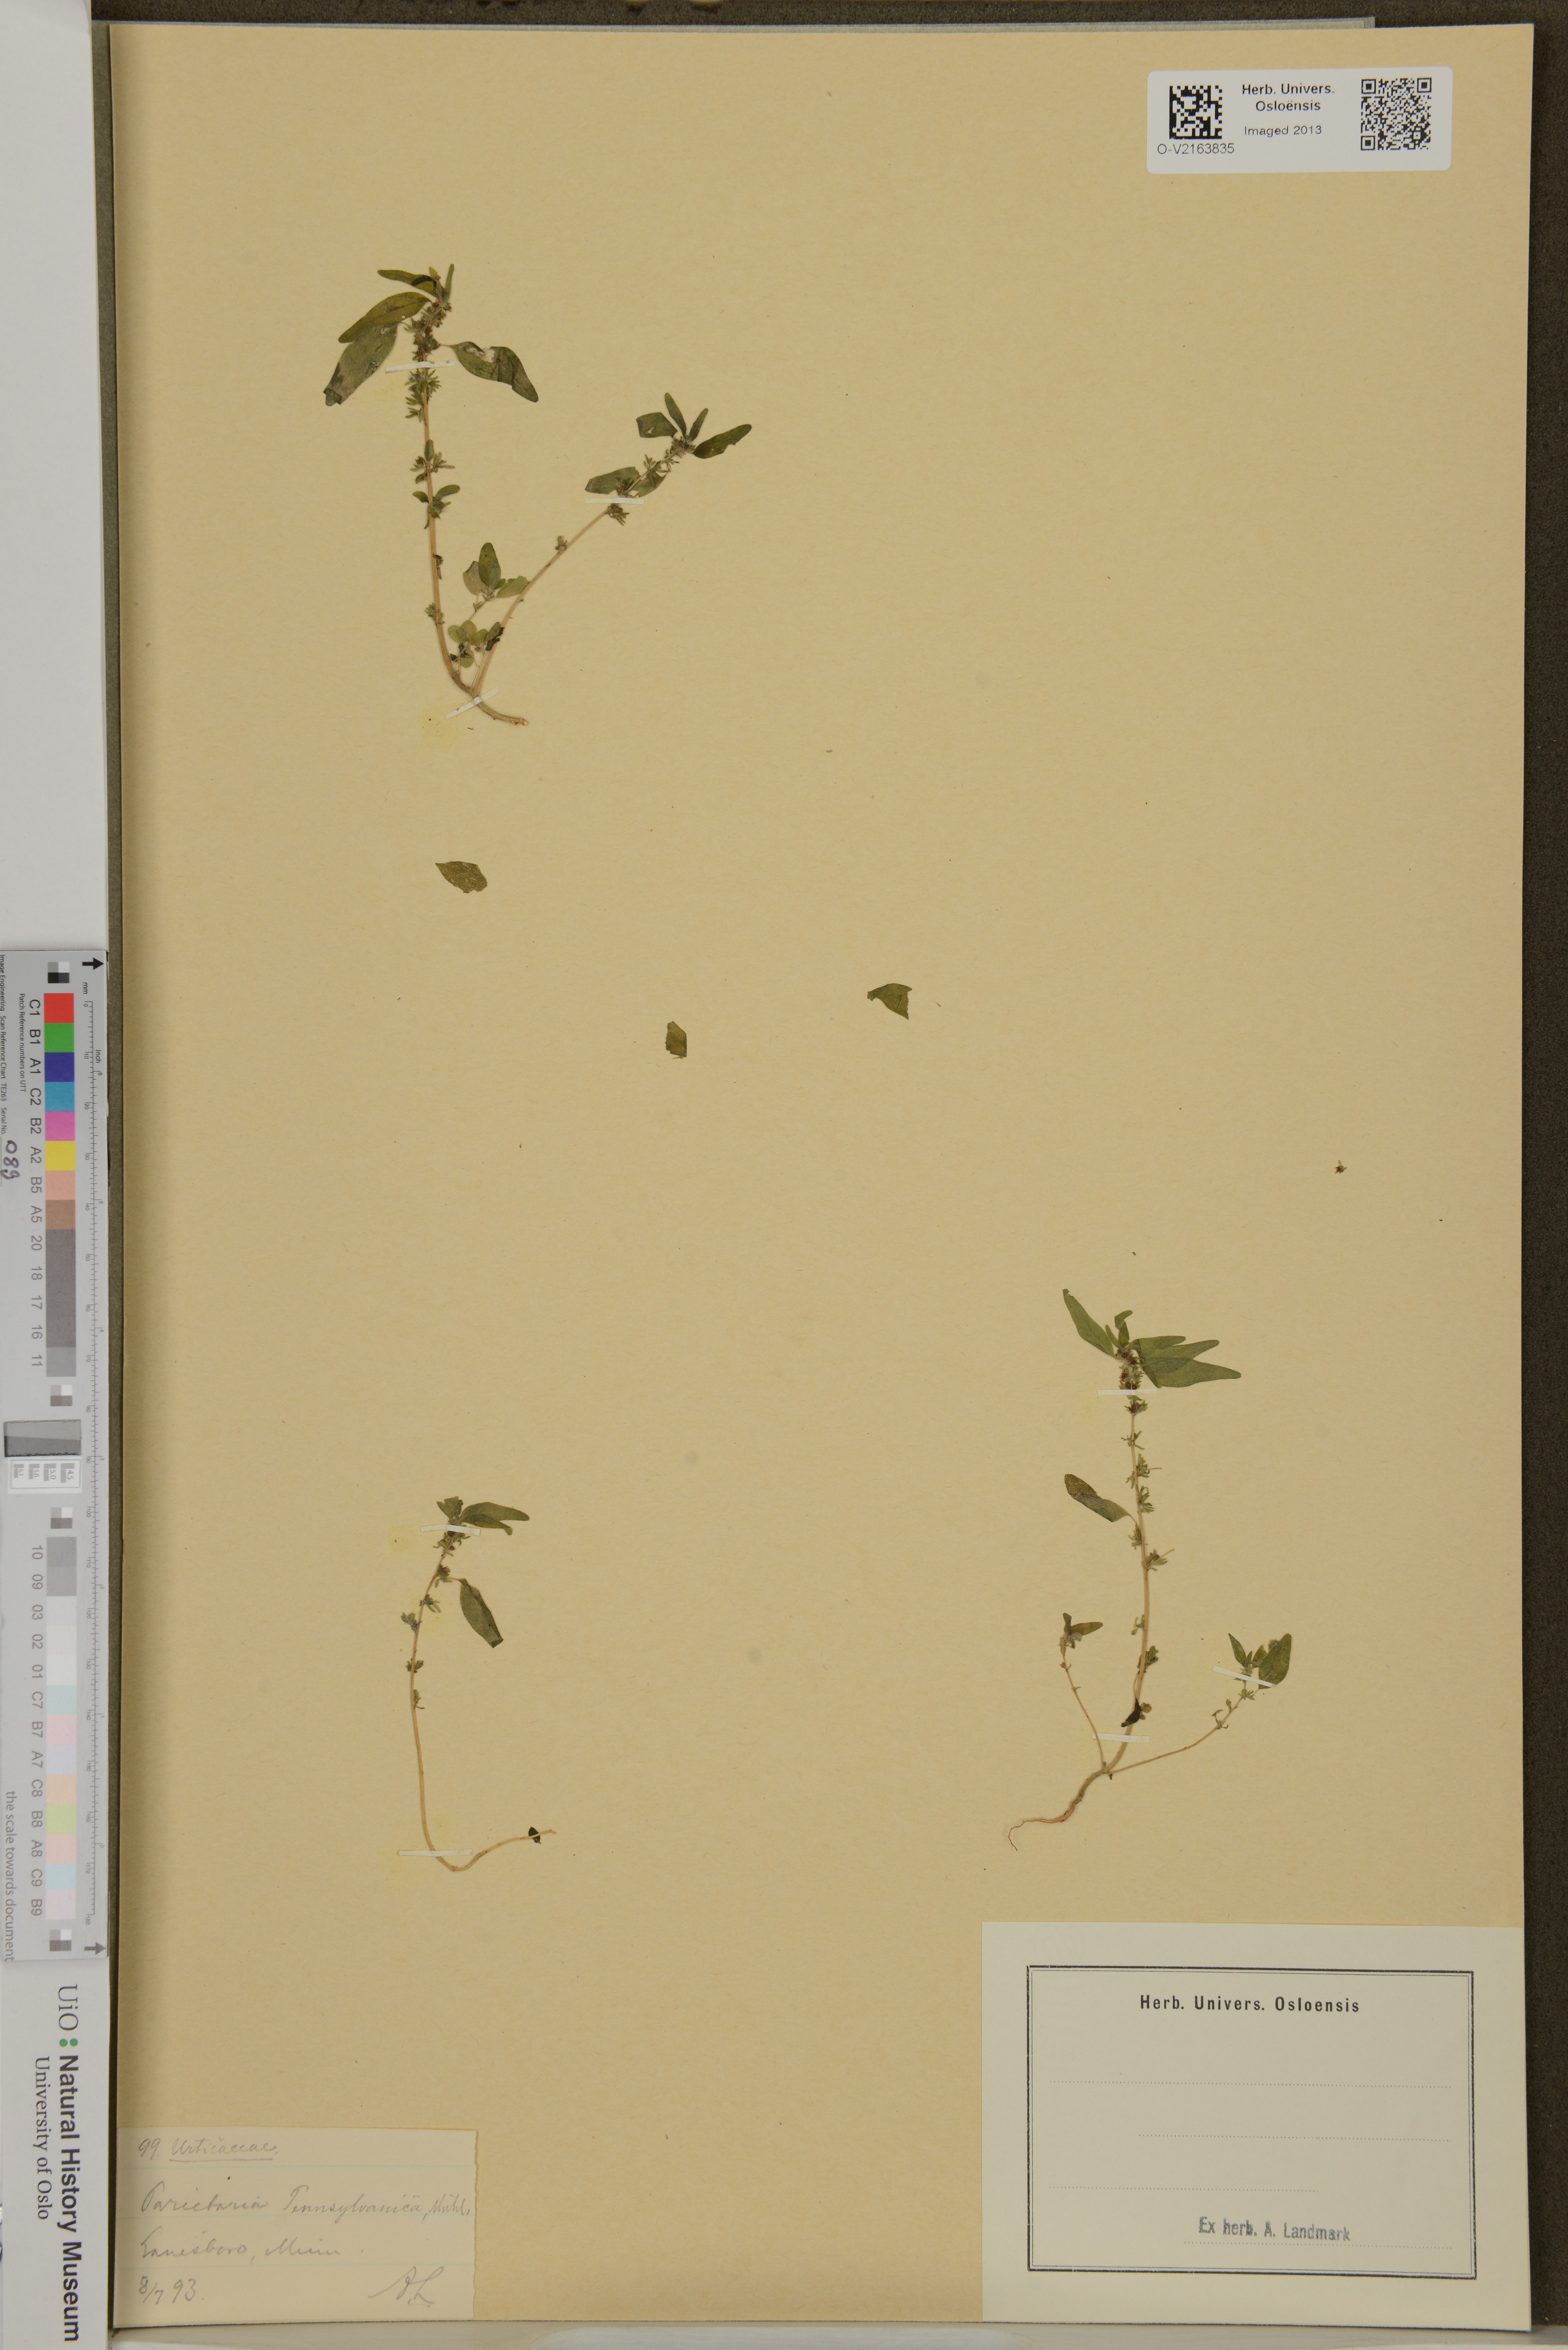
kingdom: Plantae
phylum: Tracheophyta
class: Magnoliopsida
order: Rosales
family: Urticaceae
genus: Parietaria
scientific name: Parietaria pensylvanica
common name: Pennsylvania pellitory
